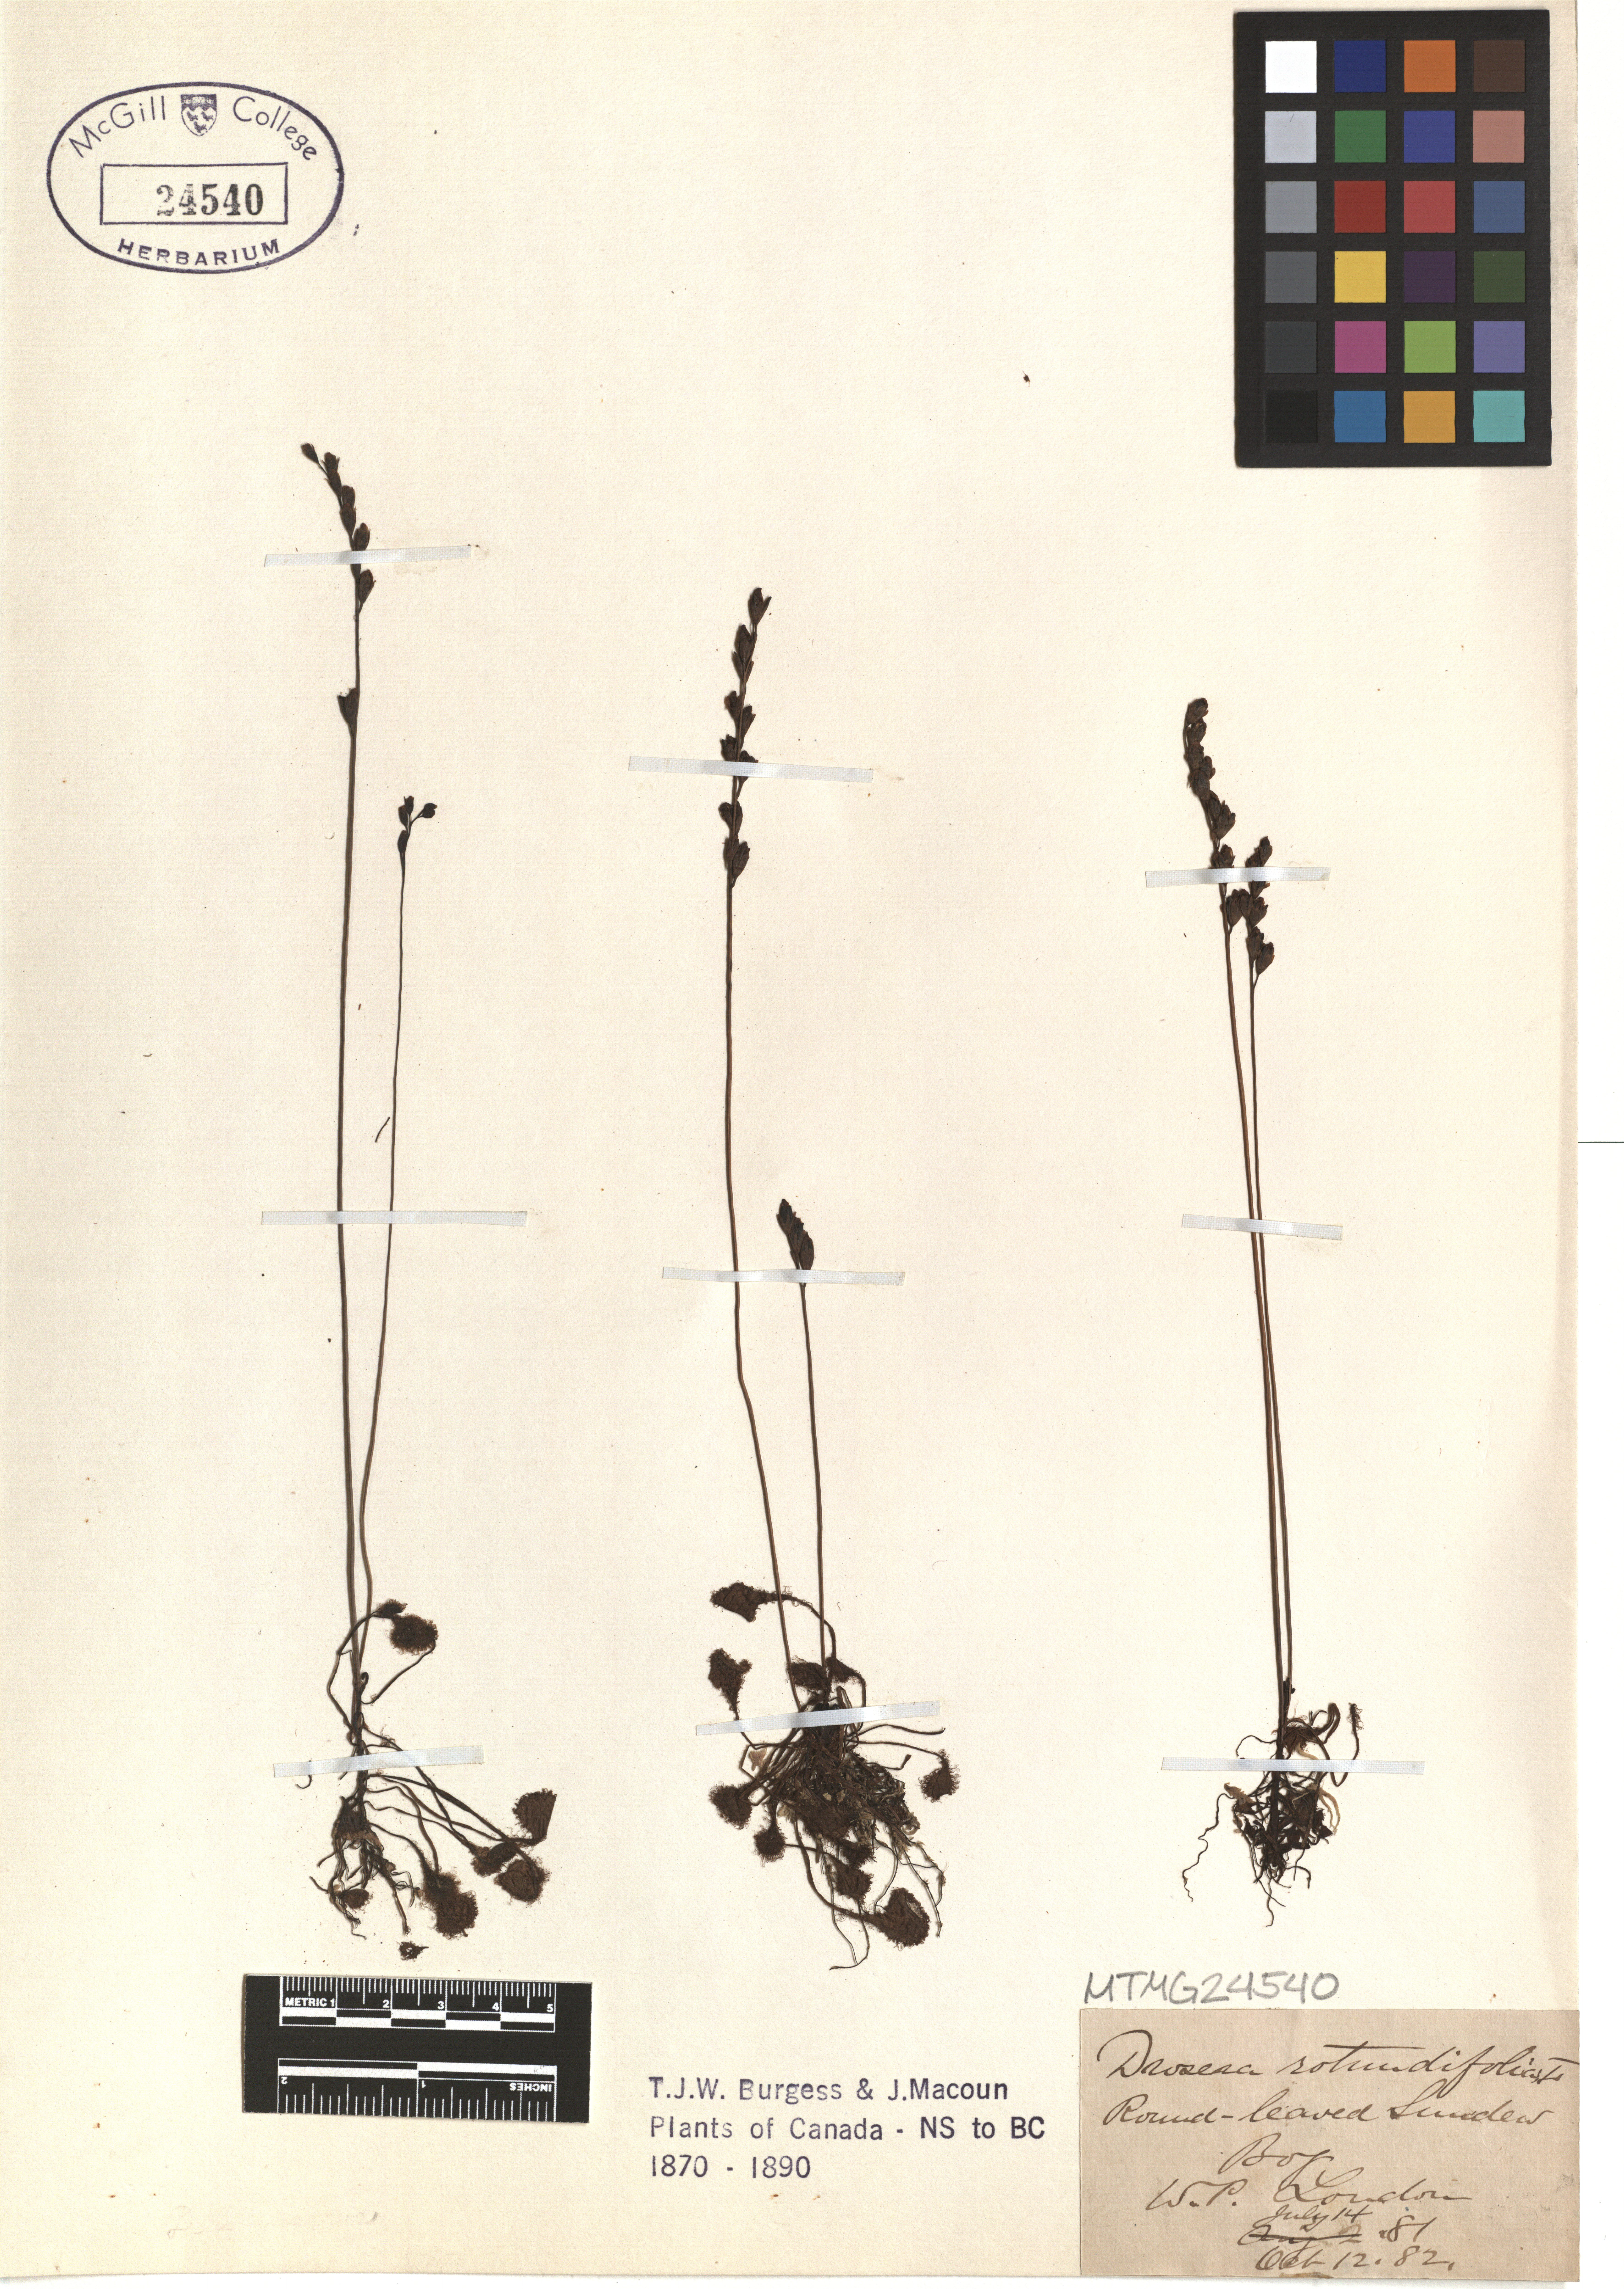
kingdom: Plantae
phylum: Tracheophyta
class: Magnoliopsida
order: Caryophyllales
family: Droseraceae
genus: Drosera
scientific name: Drosera rotundifolia
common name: Round-leaved sundew
